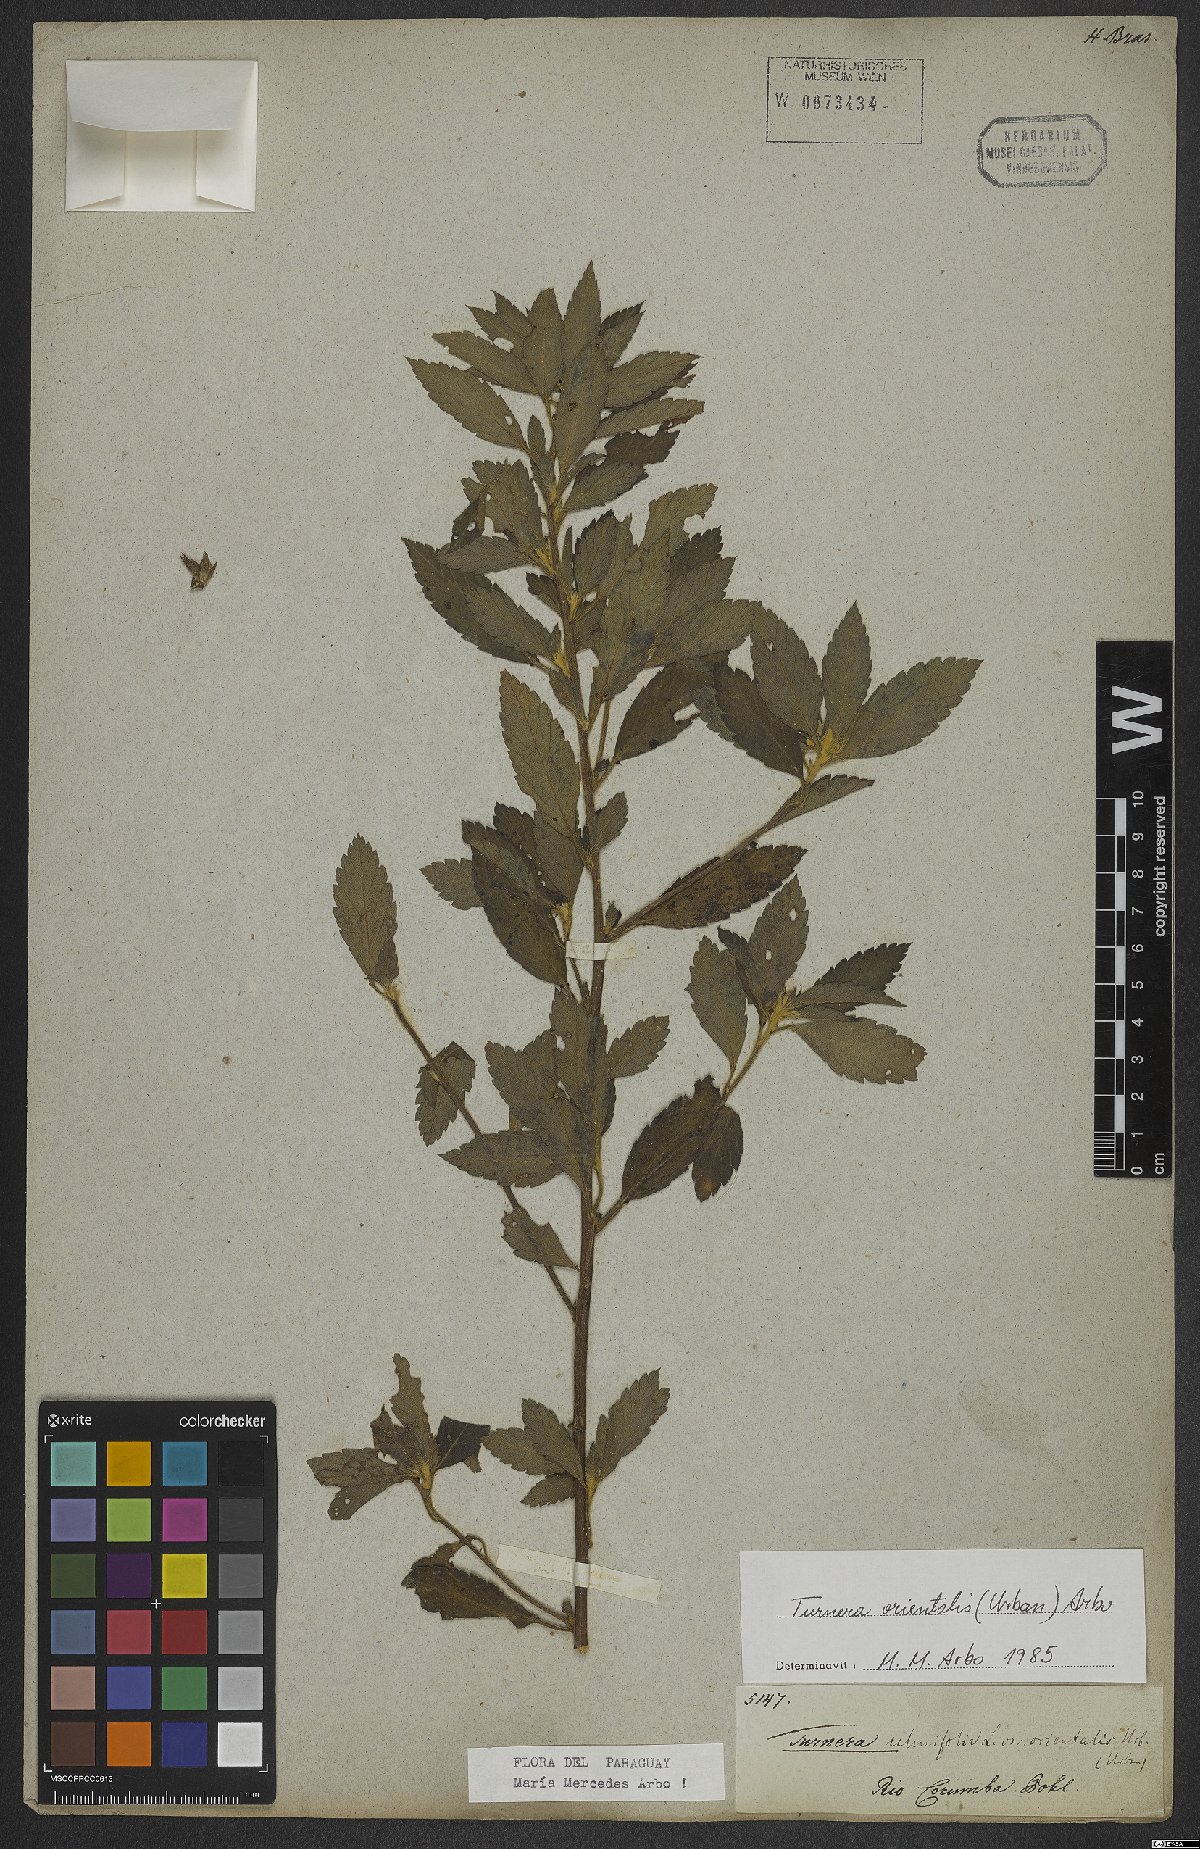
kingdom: Plantae
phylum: Tracheophyta
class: Magnoliopsida
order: Malpighiales
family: Turneraceae
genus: Turnera
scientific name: Turnera orientalis
